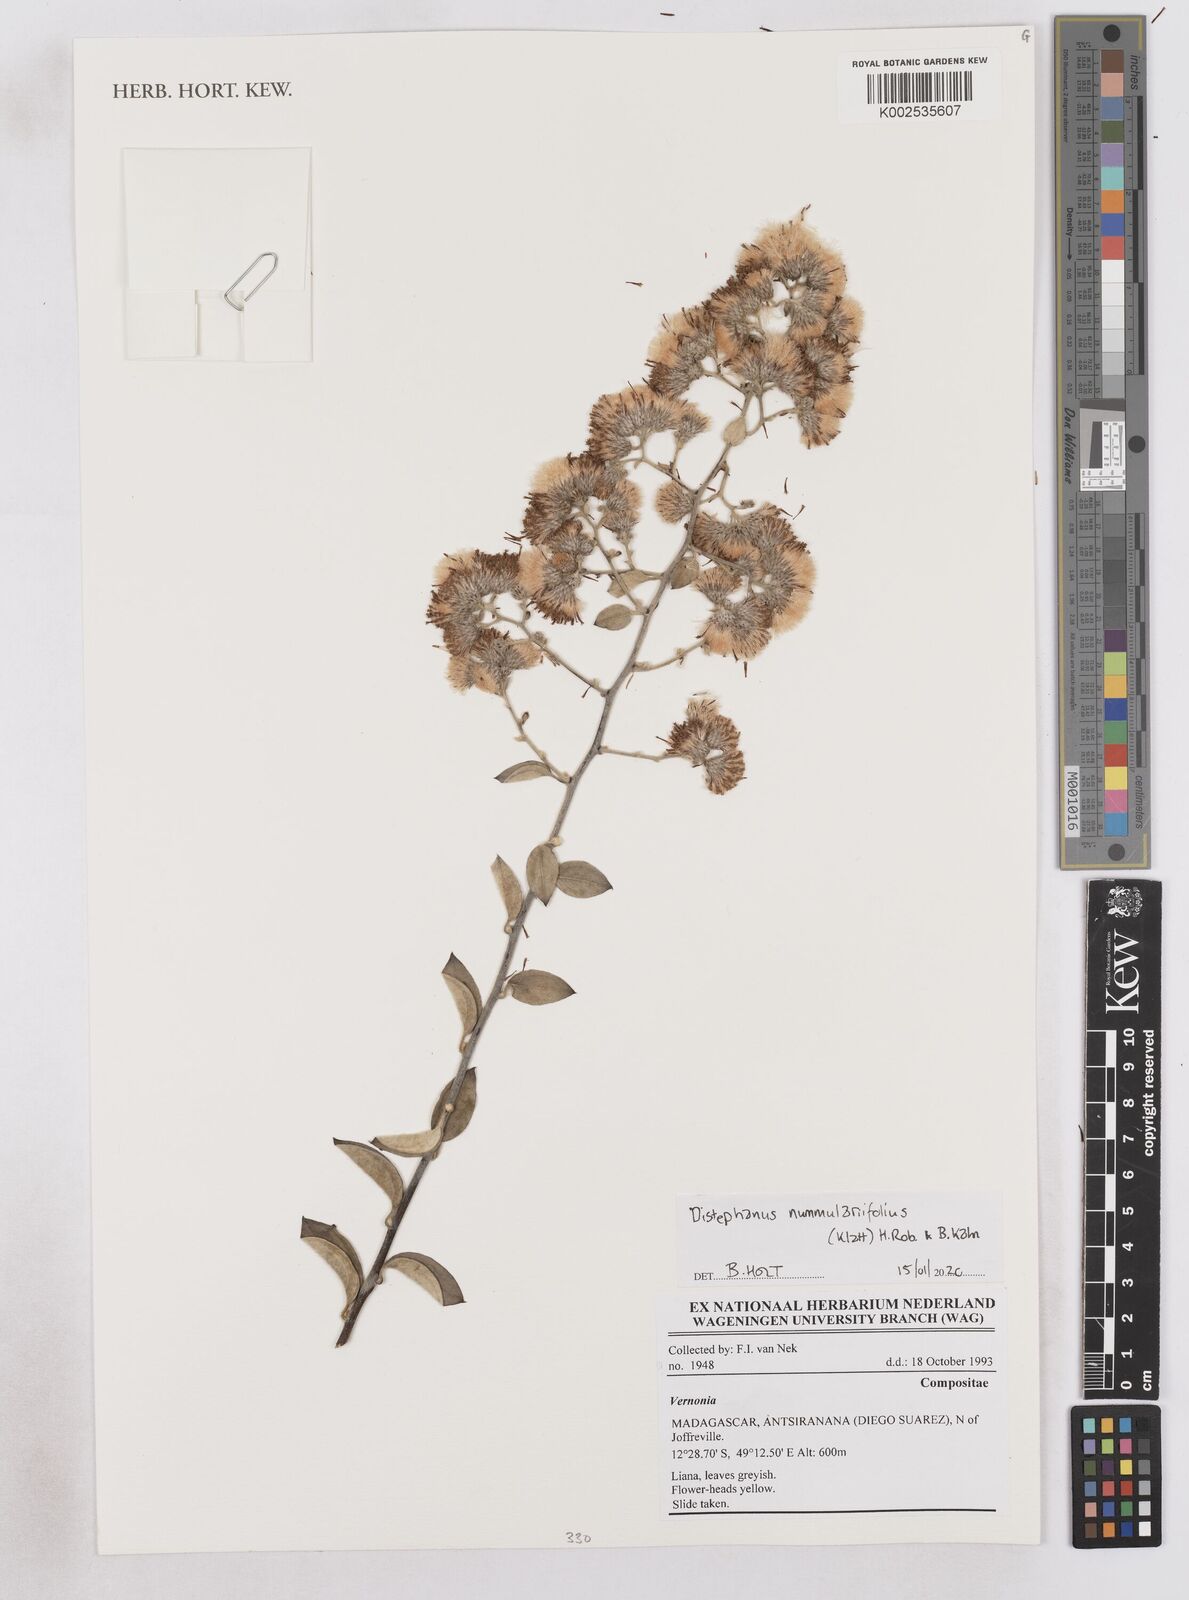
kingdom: Plantae
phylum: Tracheophyta
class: Magnoliopsida
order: Asterales
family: Asteraceae
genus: Distephanus
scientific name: Distephanus nummulariifolius
